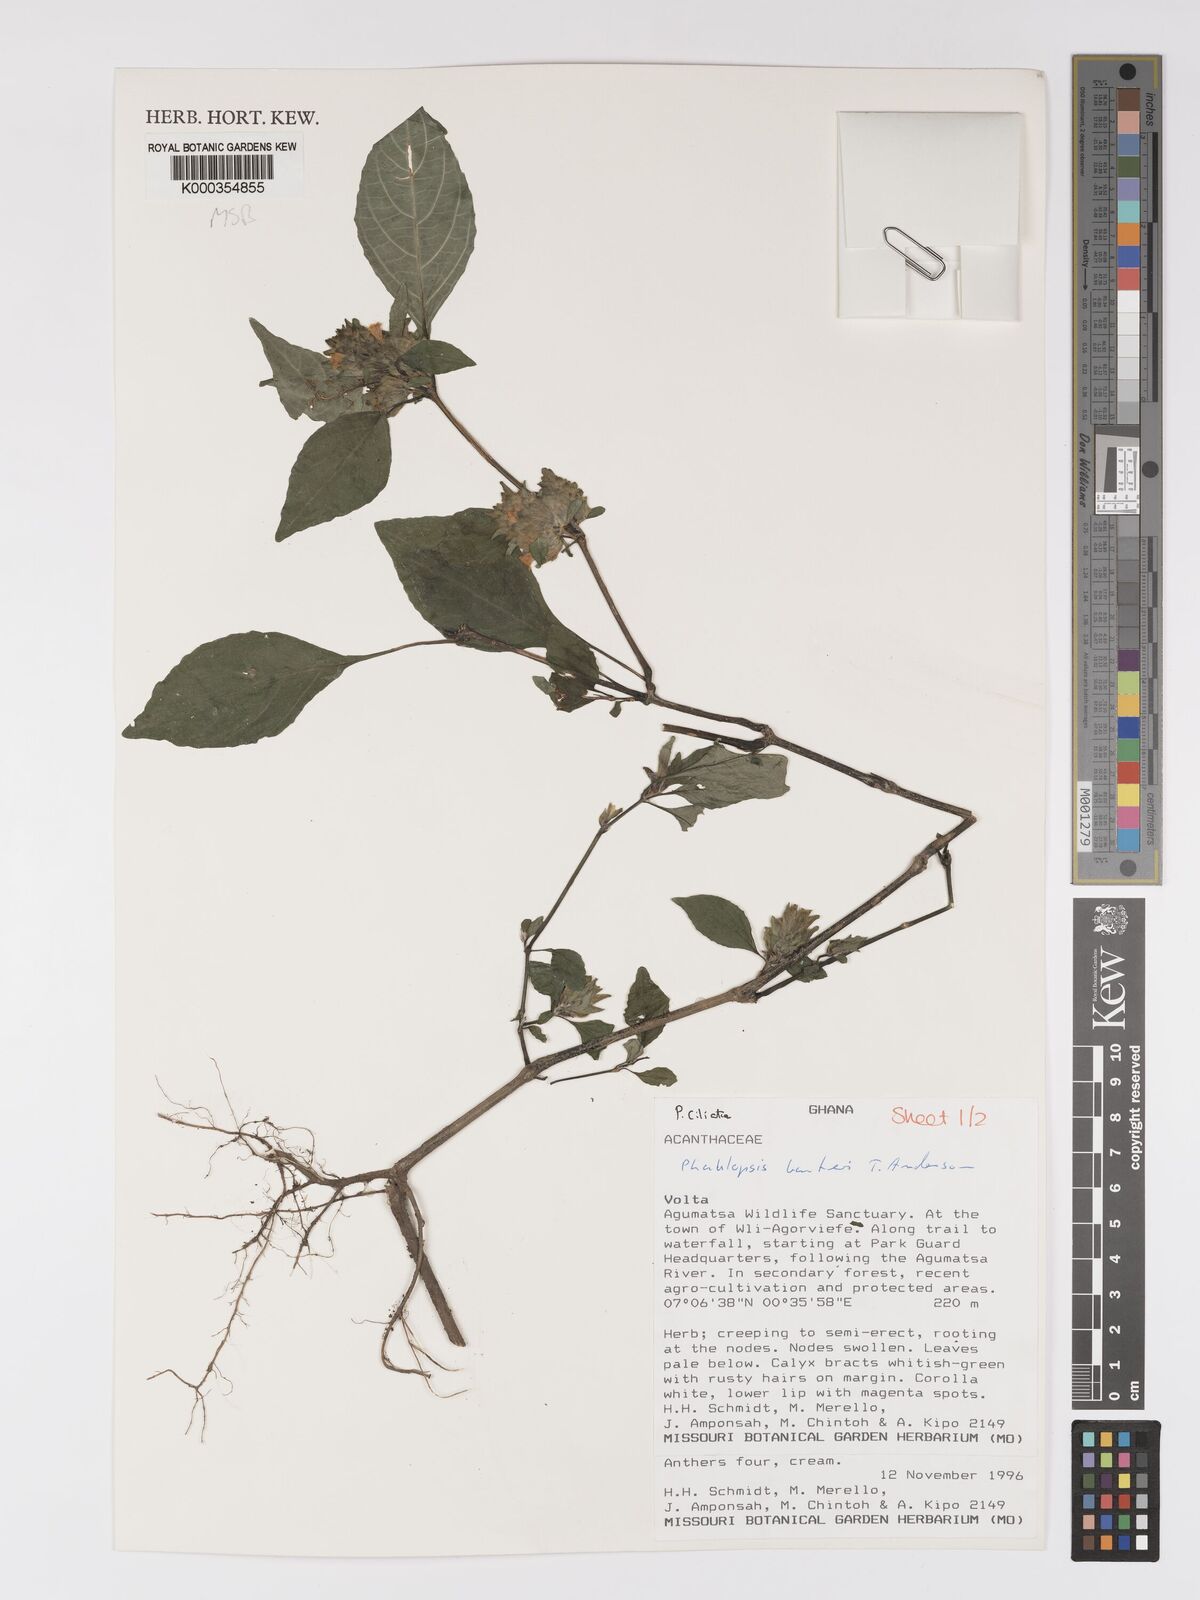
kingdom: Plantae
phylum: Tracheophyta
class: Magnoliopsida
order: Lamiales
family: Acanthaceae
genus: Phaulopsis
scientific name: Phaulopsis barteri
